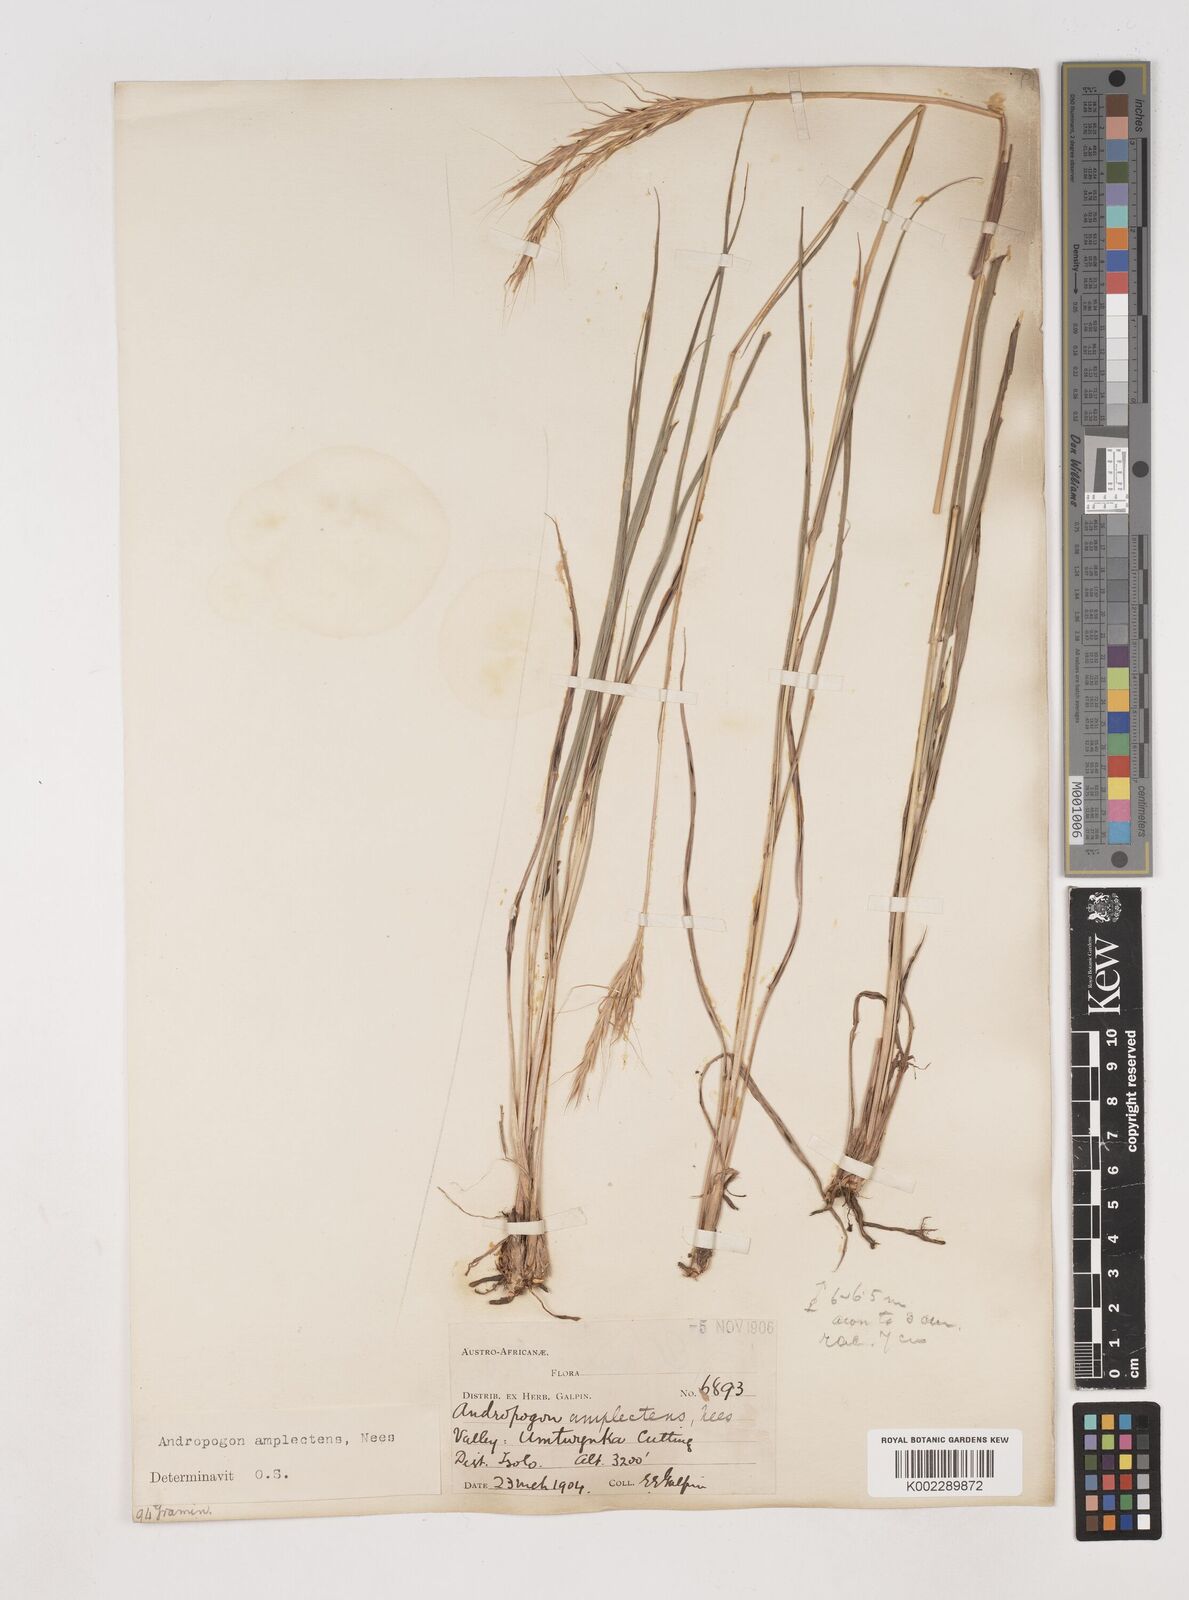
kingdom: Plantae
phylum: Tracheophyta
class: Liliopsida
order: Poales
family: Poaceae
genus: Diheteropogon
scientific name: Diheteropogon amplectens
